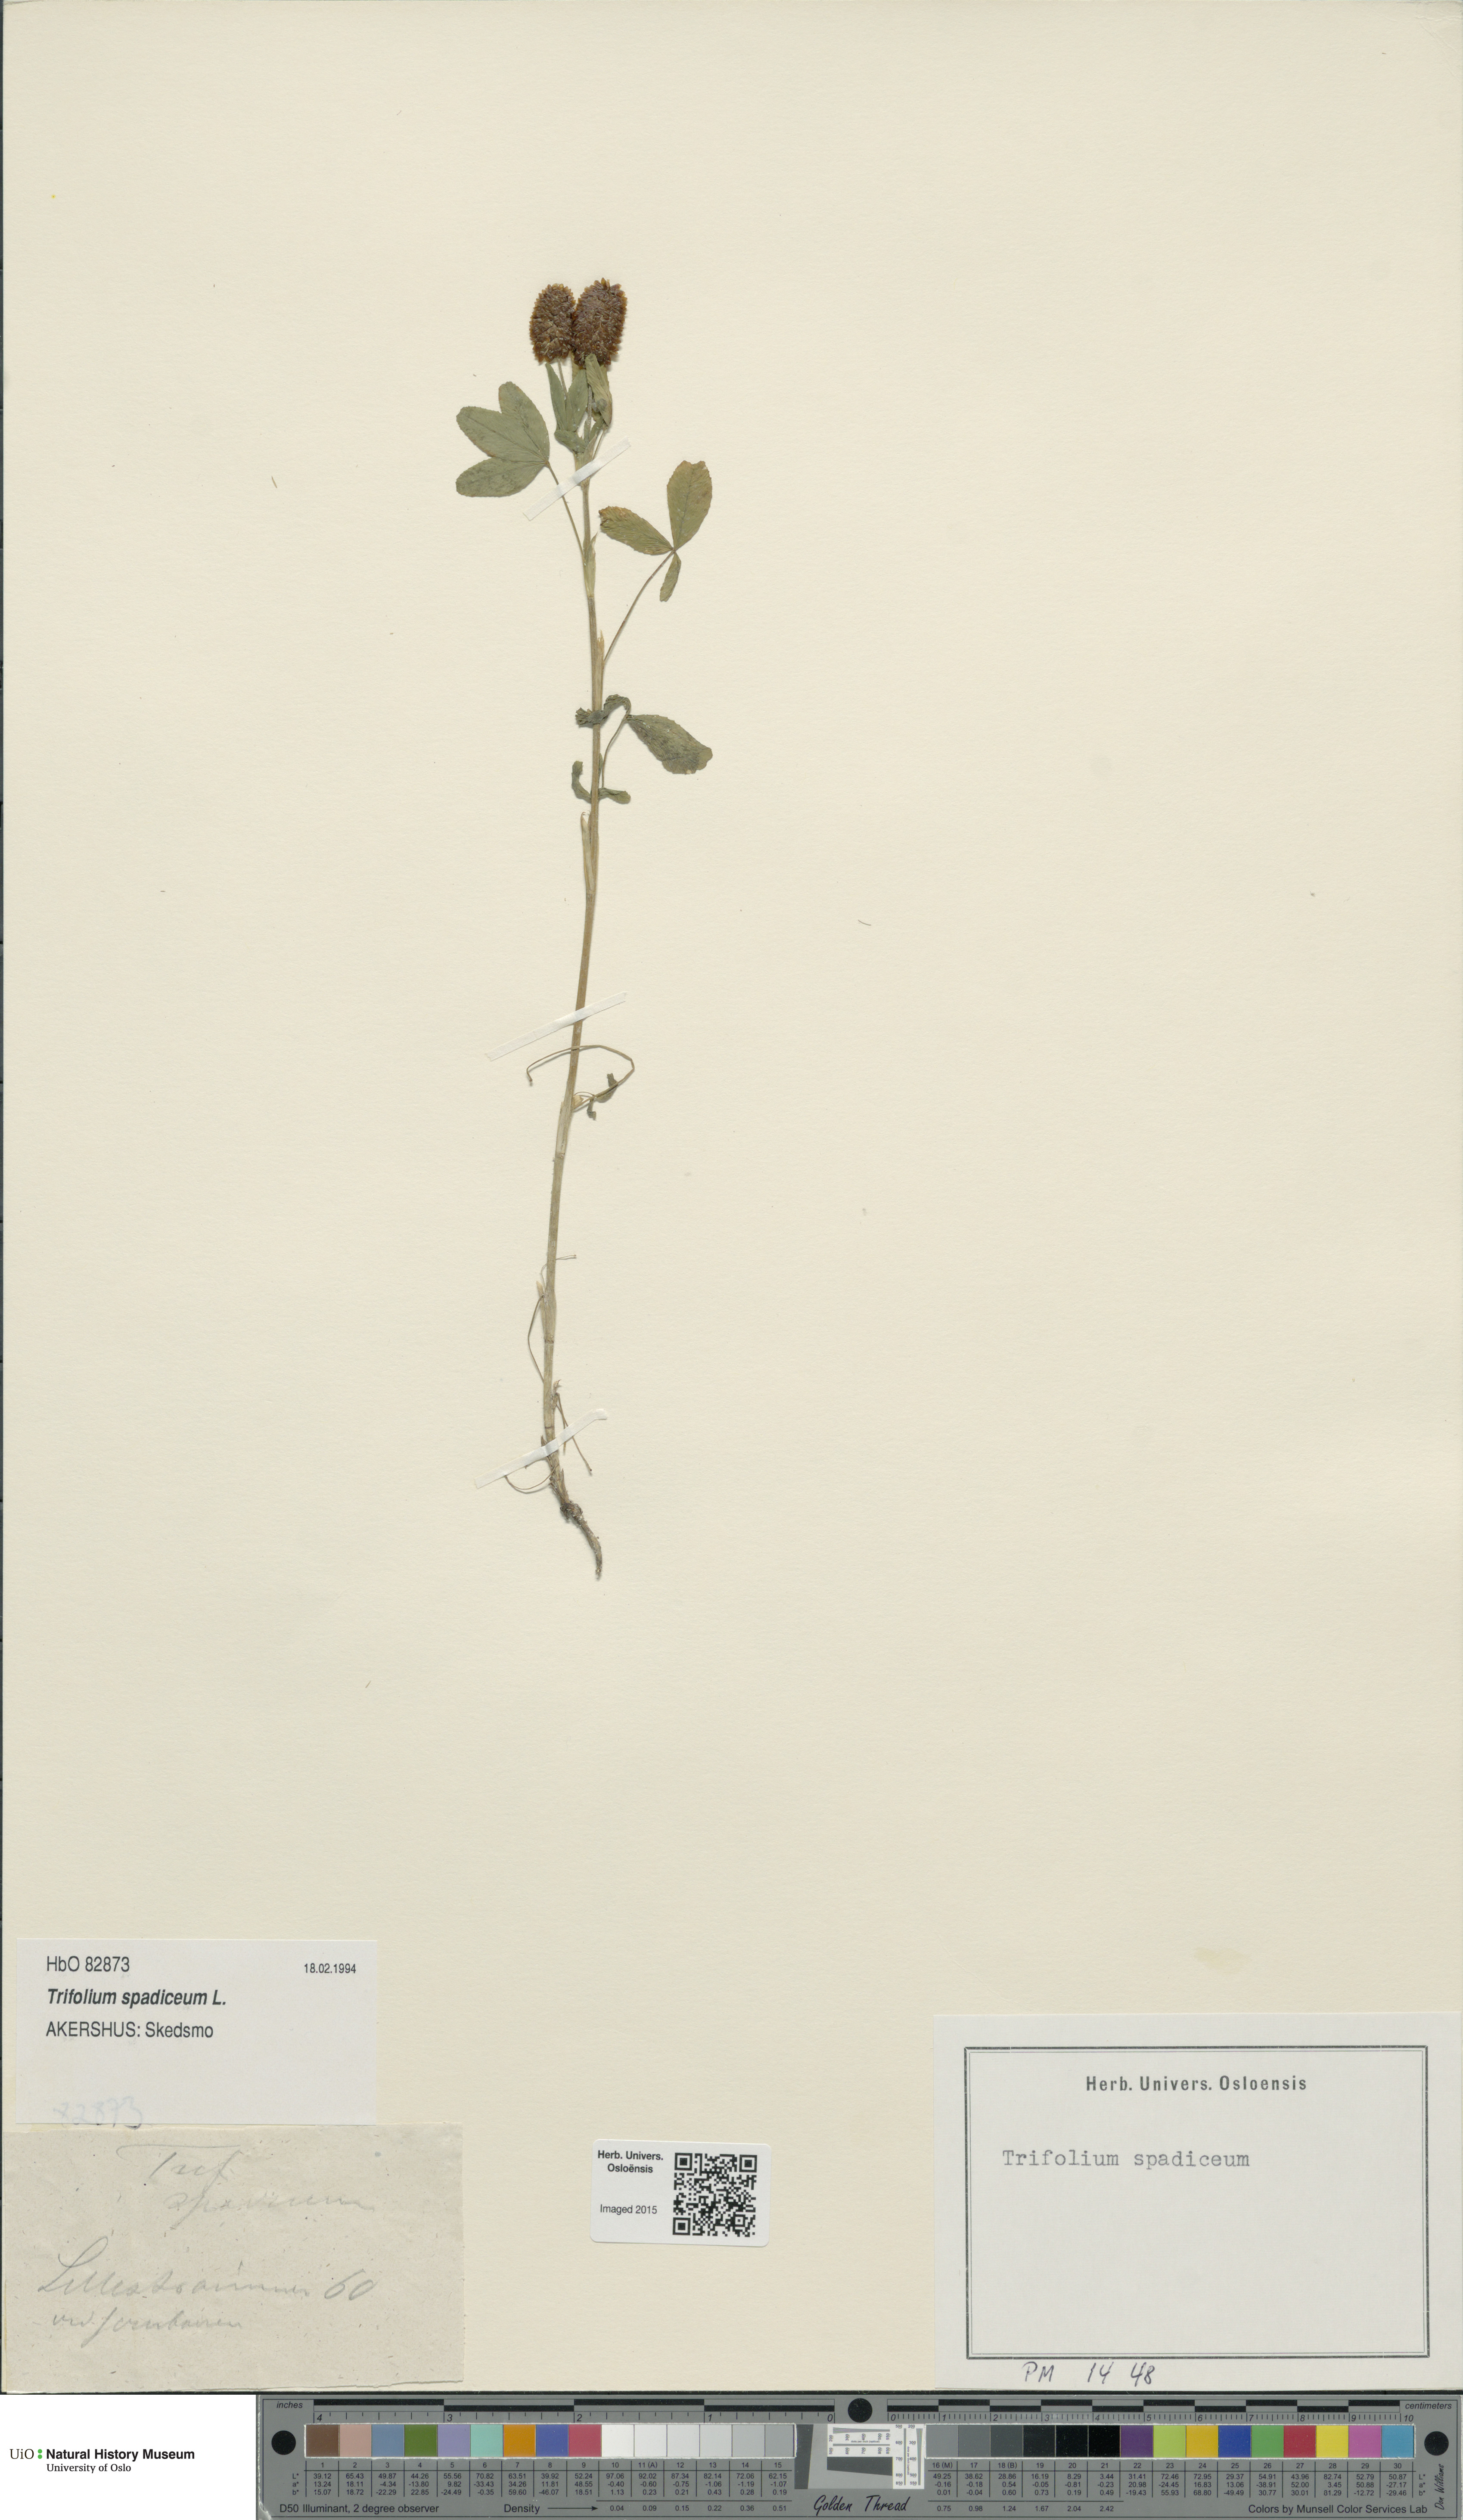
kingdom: Plantae
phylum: Tracheophyta
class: Magnoliopsida
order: Fabales
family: Fabaceae
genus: Trifolium
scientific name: Trifolium spadiceum
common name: Brown moor clover
